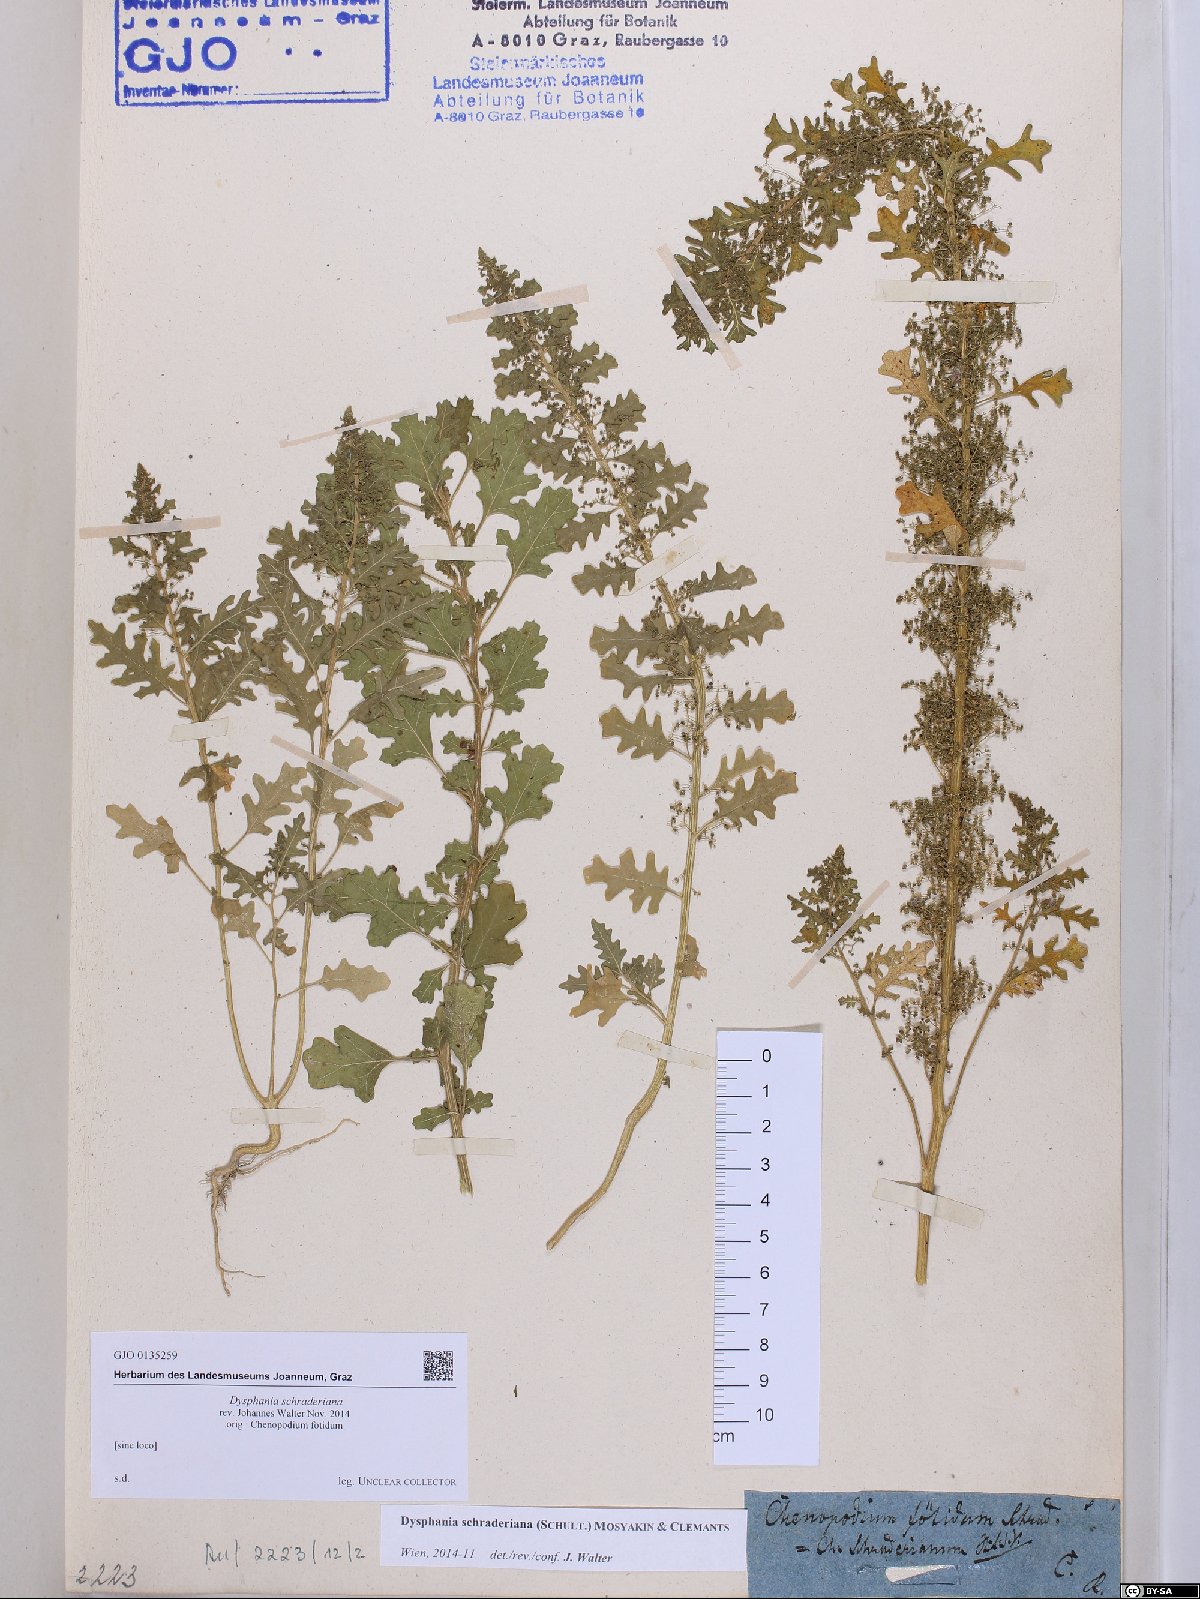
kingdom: Plantae
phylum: Tracheophyta
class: Magnoliopsida
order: Caryophyllales
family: Amaranthaceae
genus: Dysphania
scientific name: Dysphania schraderiana
